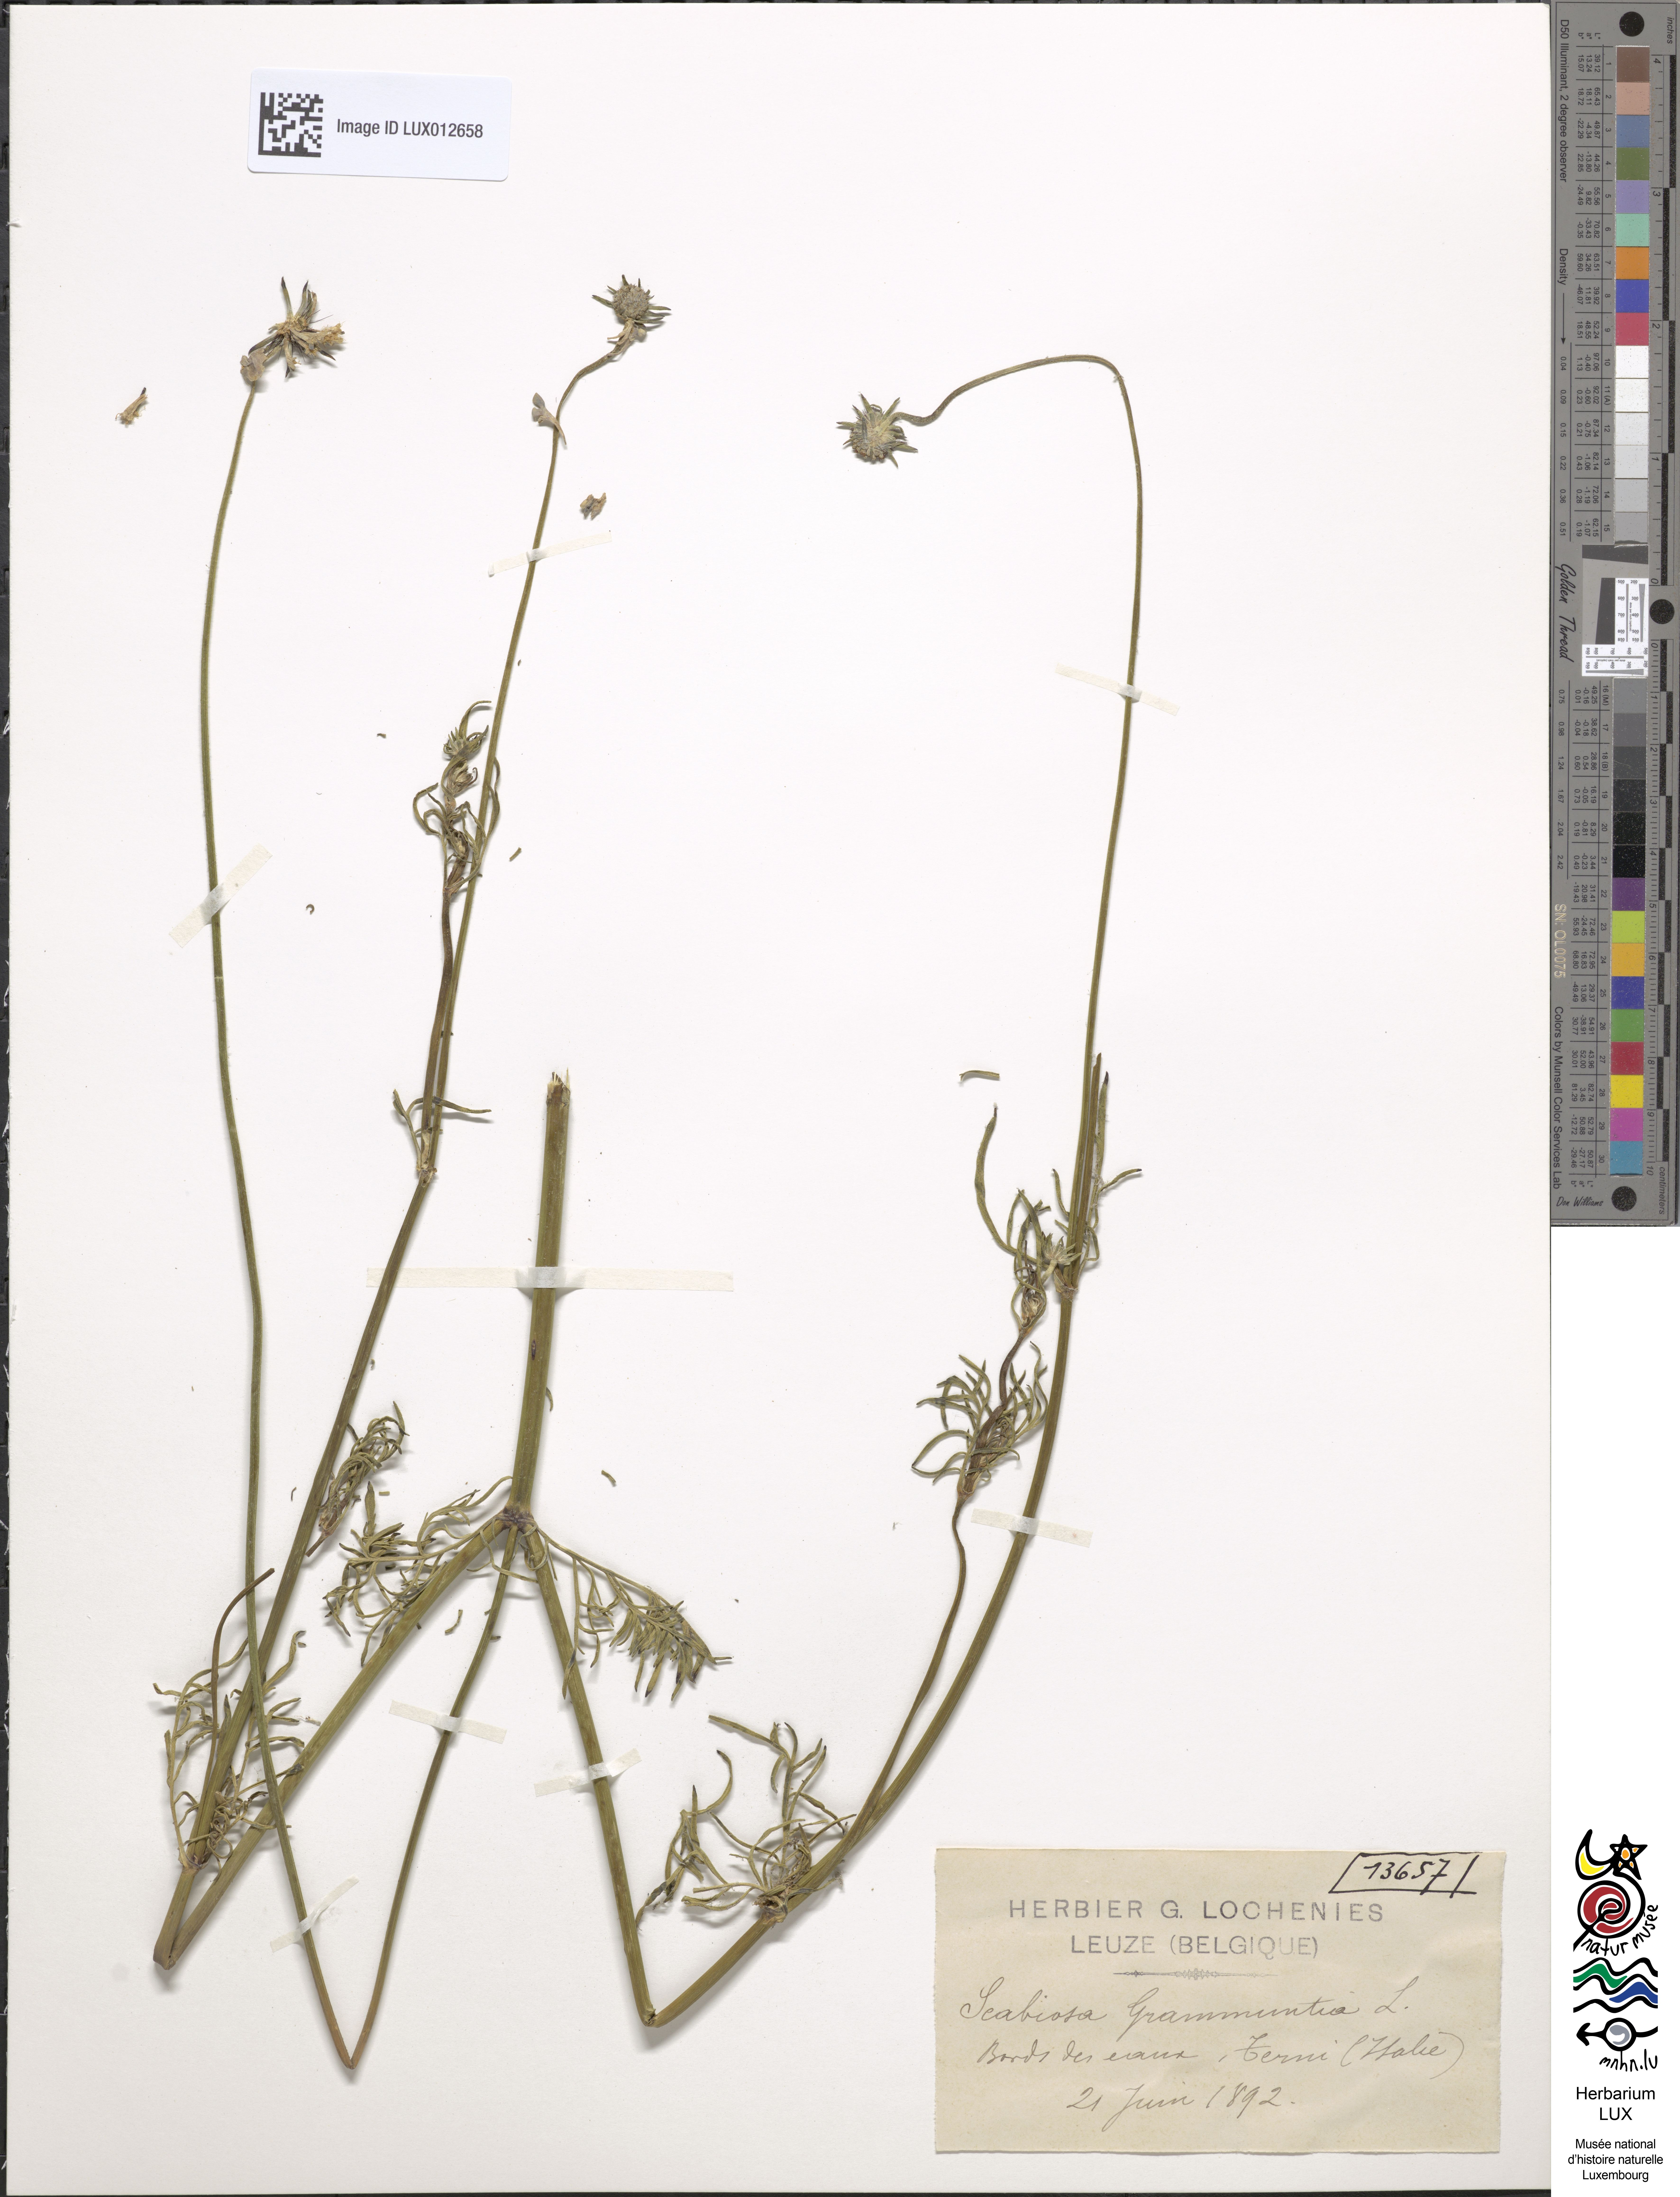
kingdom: Plantae
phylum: Tracheophyta
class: Magnoliopsida
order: Dipsacales
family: Caprifoliaceae
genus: Scabiosa
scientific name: Scabiosa triandra
